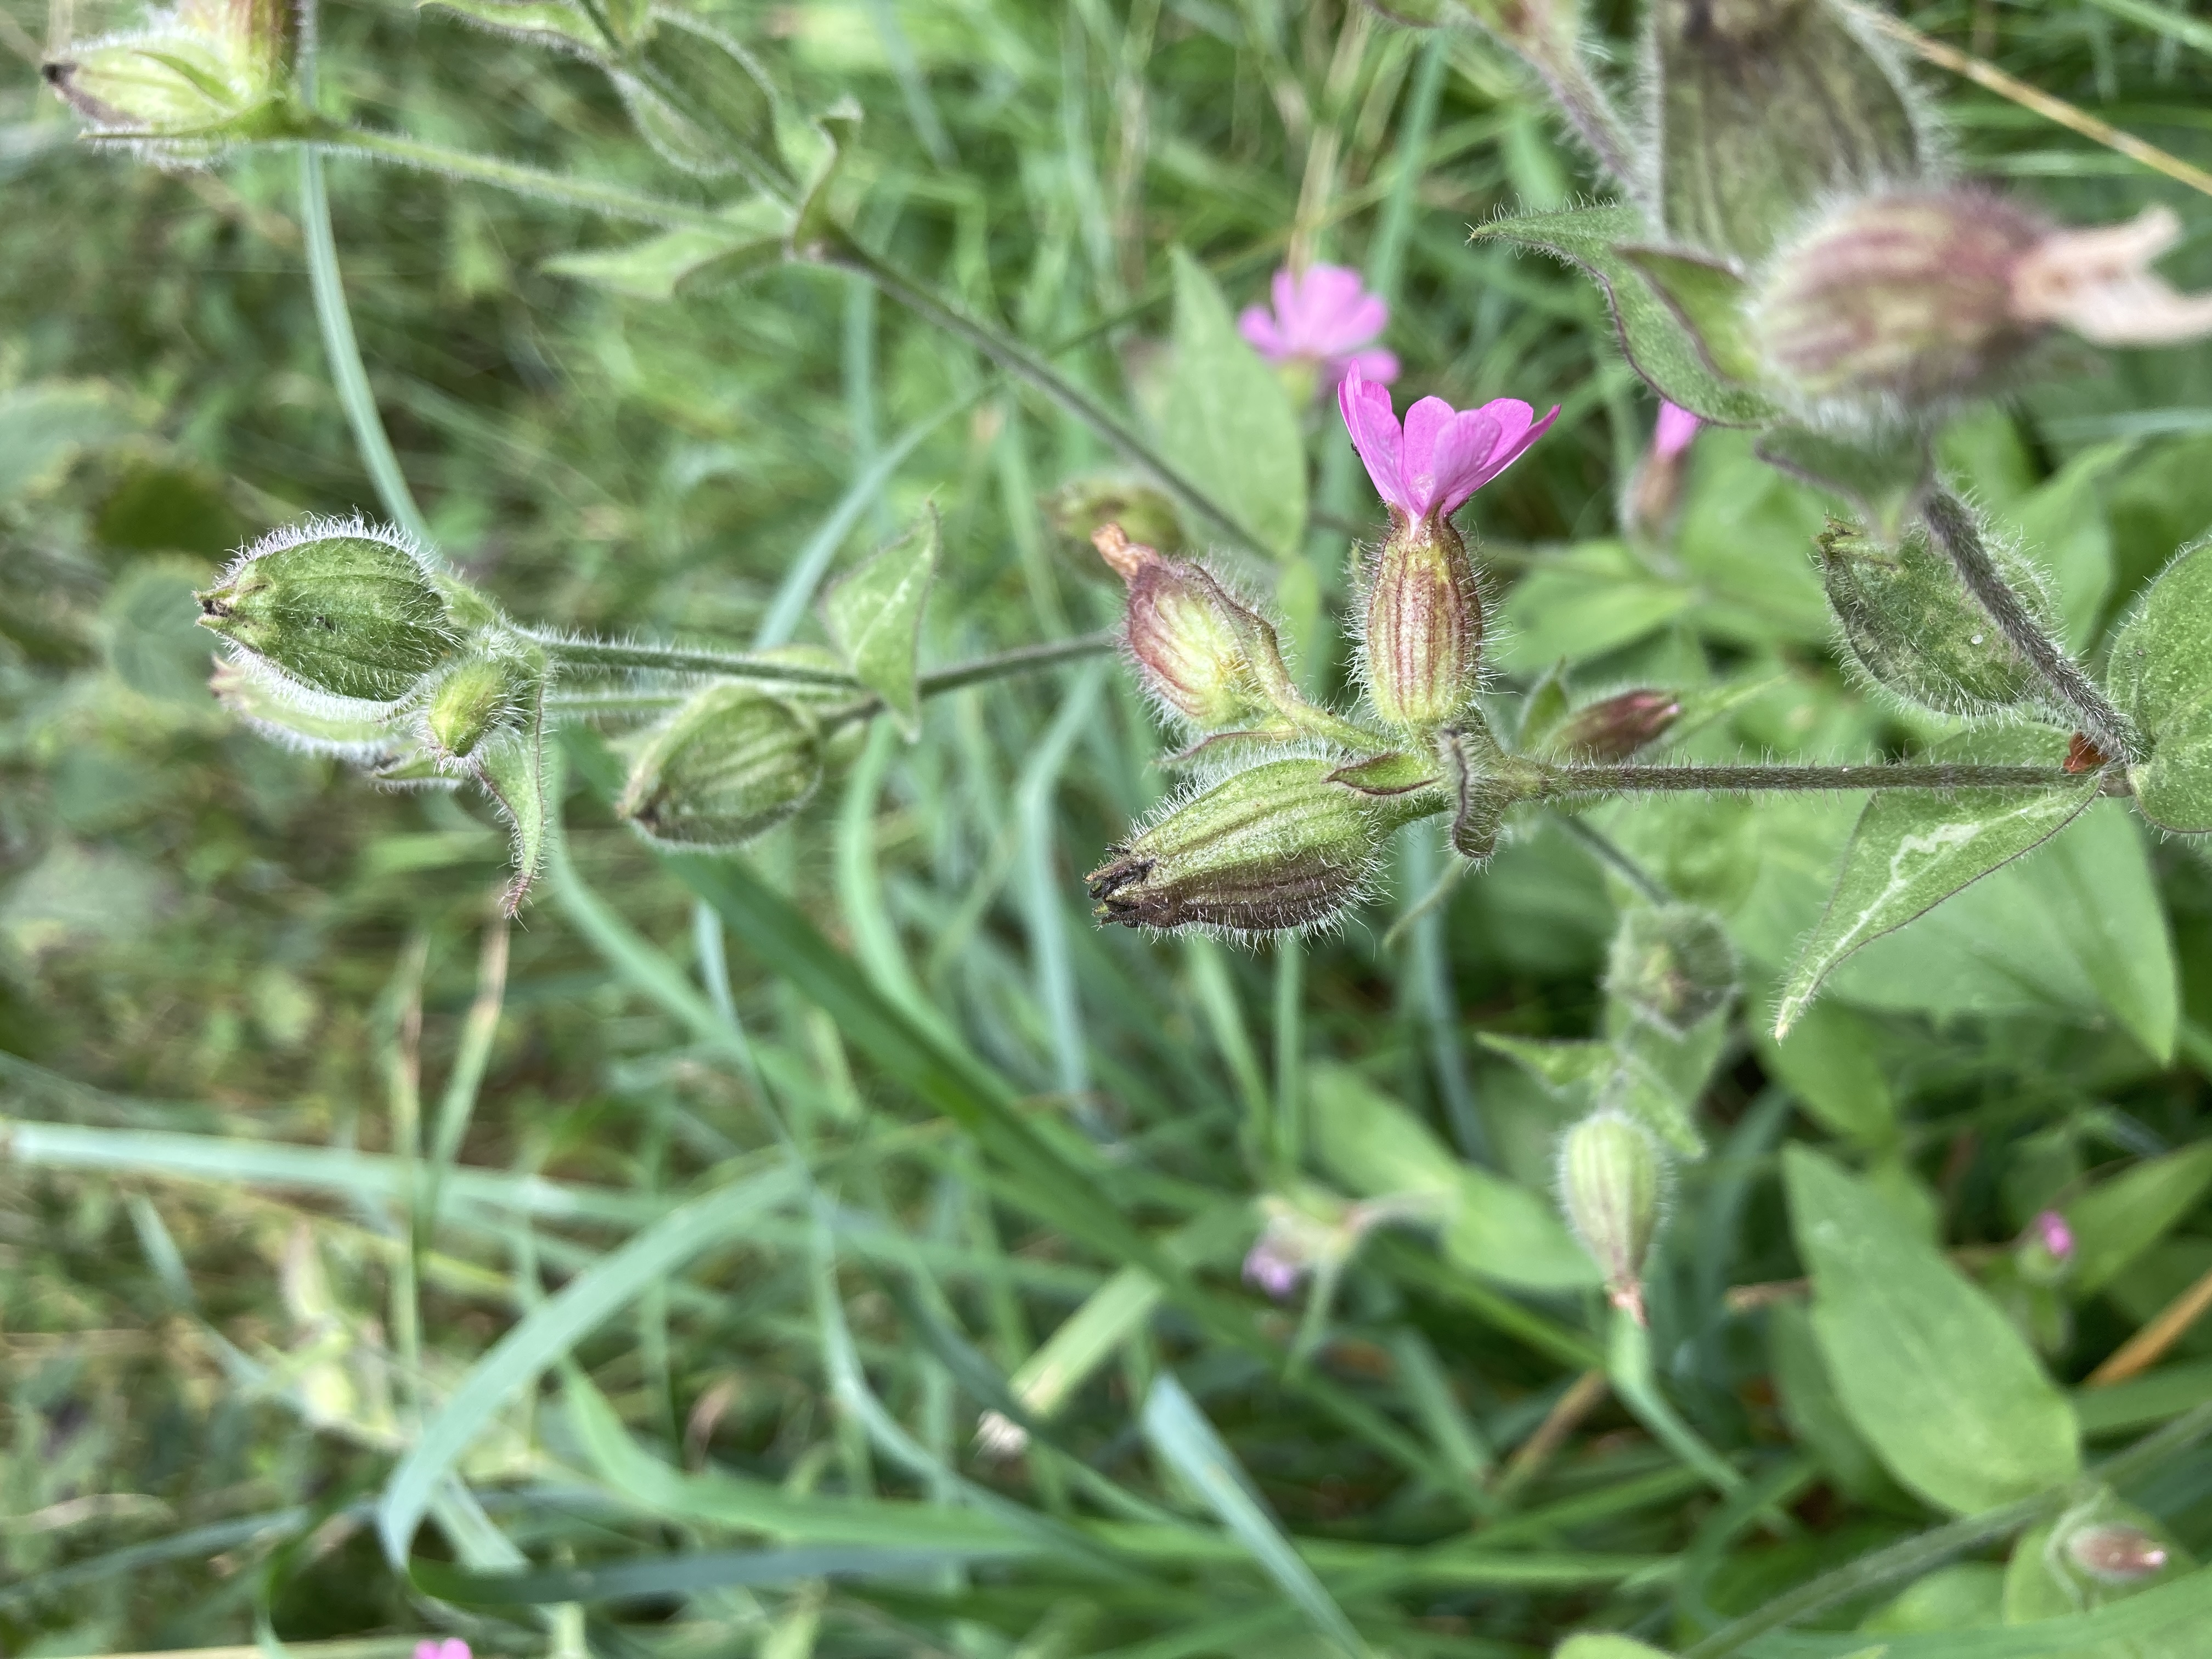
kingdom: Plantae
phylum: Tracheophyta
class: Magnoliopsida
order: Caryophyllales
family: Caryophyllaceae
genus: Silene
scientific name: Silene dioica
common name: Dagpragtstjerne
